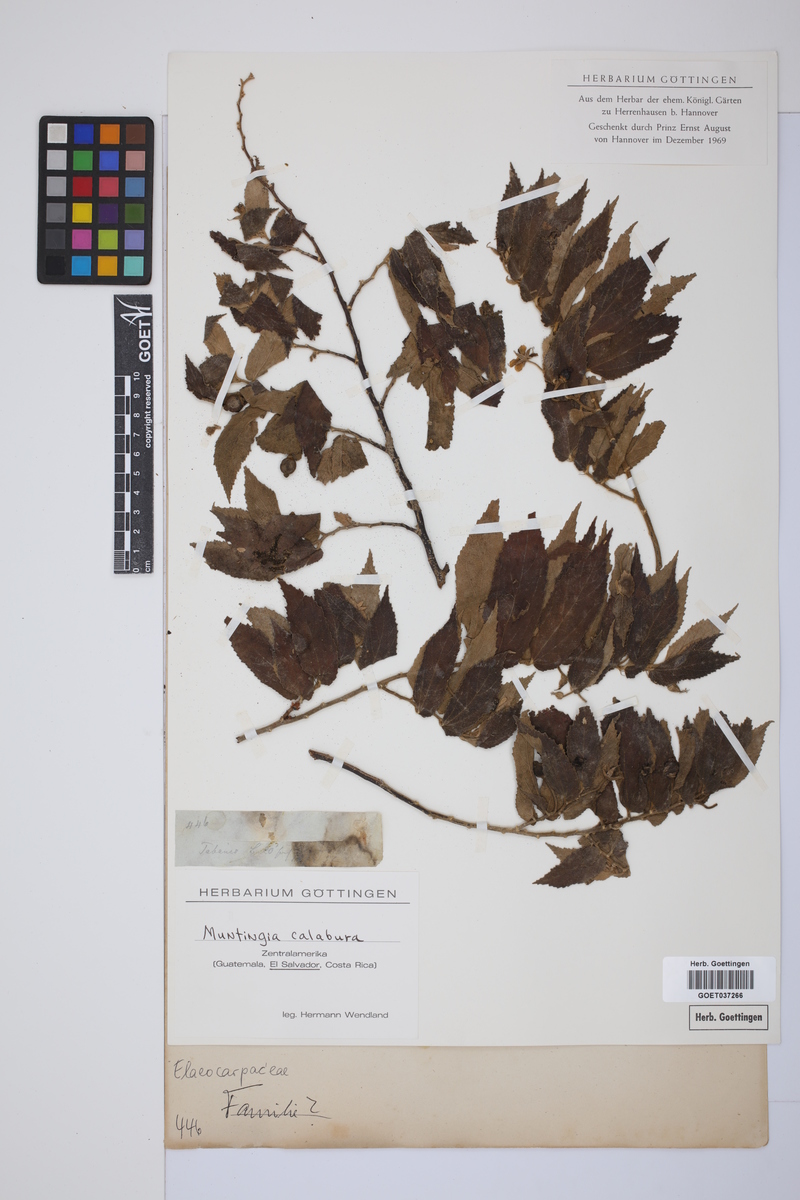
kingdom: Plantae
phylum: Tracheophyta
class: Magnoliopsida
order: Malvales
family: Muntingiaceae
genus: Muntingia
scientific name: Muntingia calabura
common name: Strawberrytree
